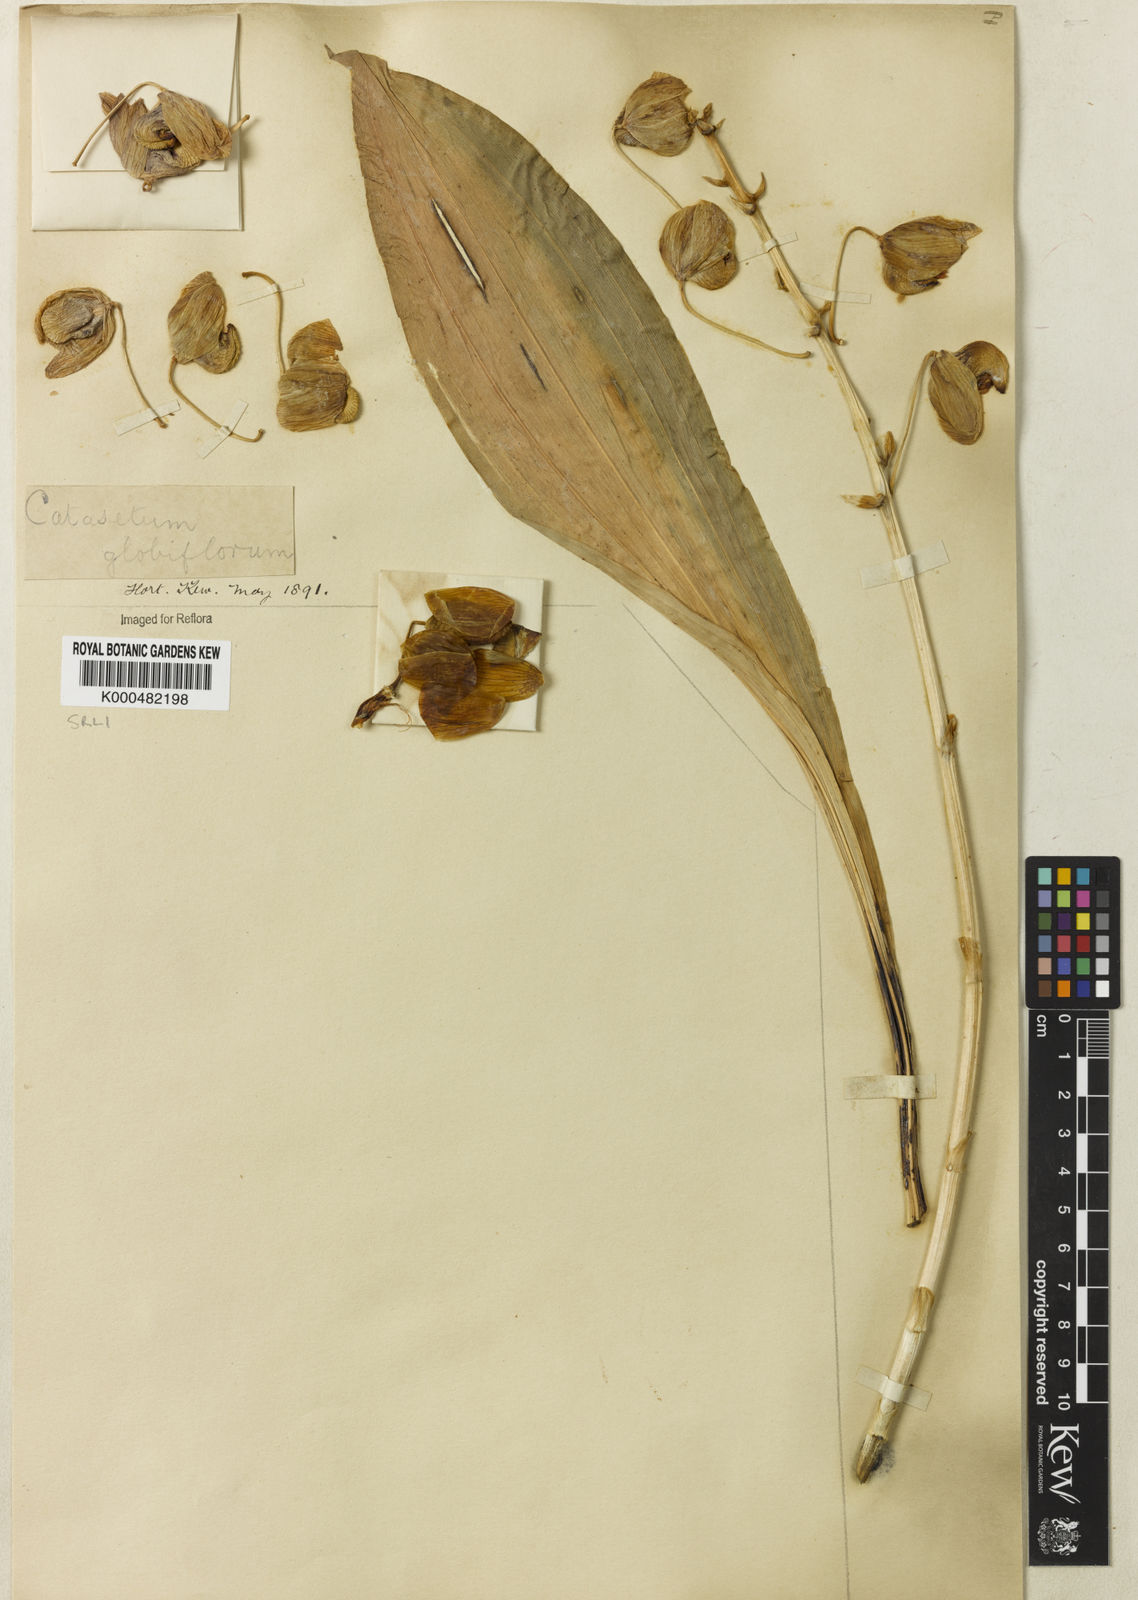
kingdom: Plantae
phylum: Tracheophyta
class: Liliopsida
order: Asparagales
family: Orchidaceae
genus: Catasetum
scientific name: Catasetum
